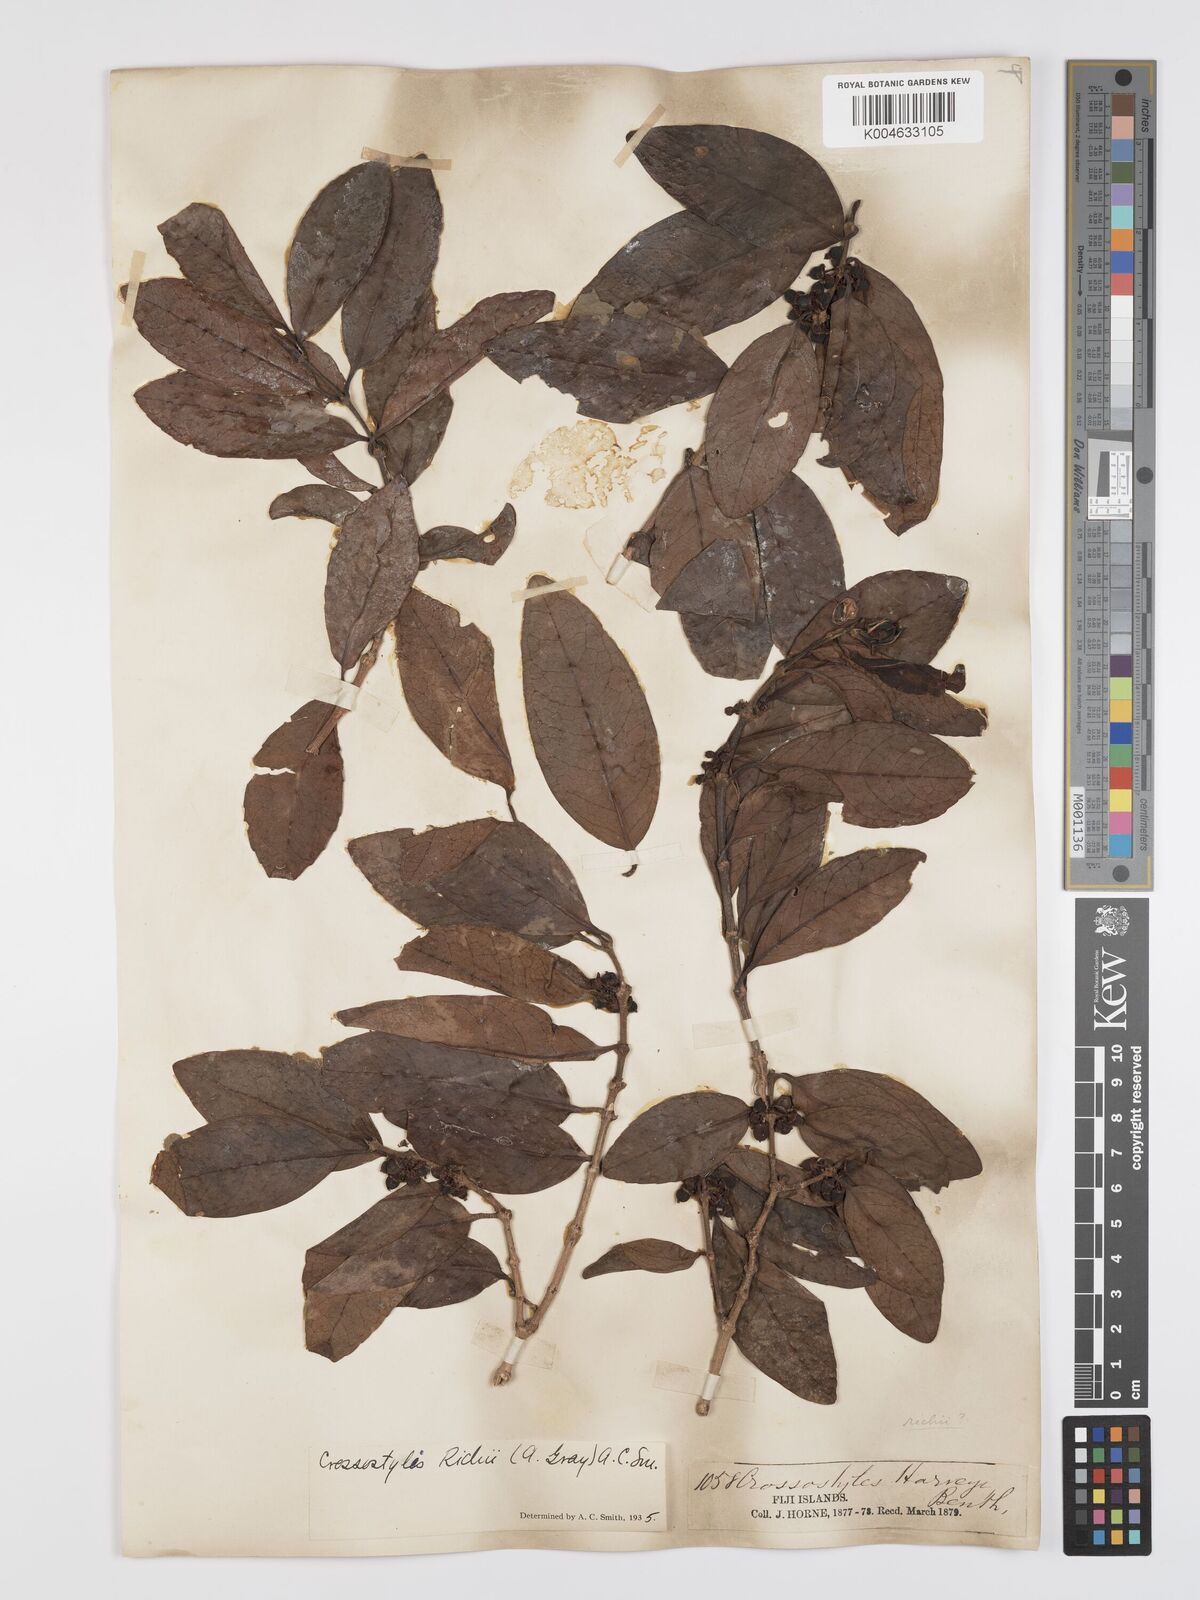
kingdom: Plantae
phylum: Tracheophyta
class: Magnoliopsida
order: Malpighiales
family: Rhizophoraceae
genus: Crossostylis
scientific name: Crossostylis richii
